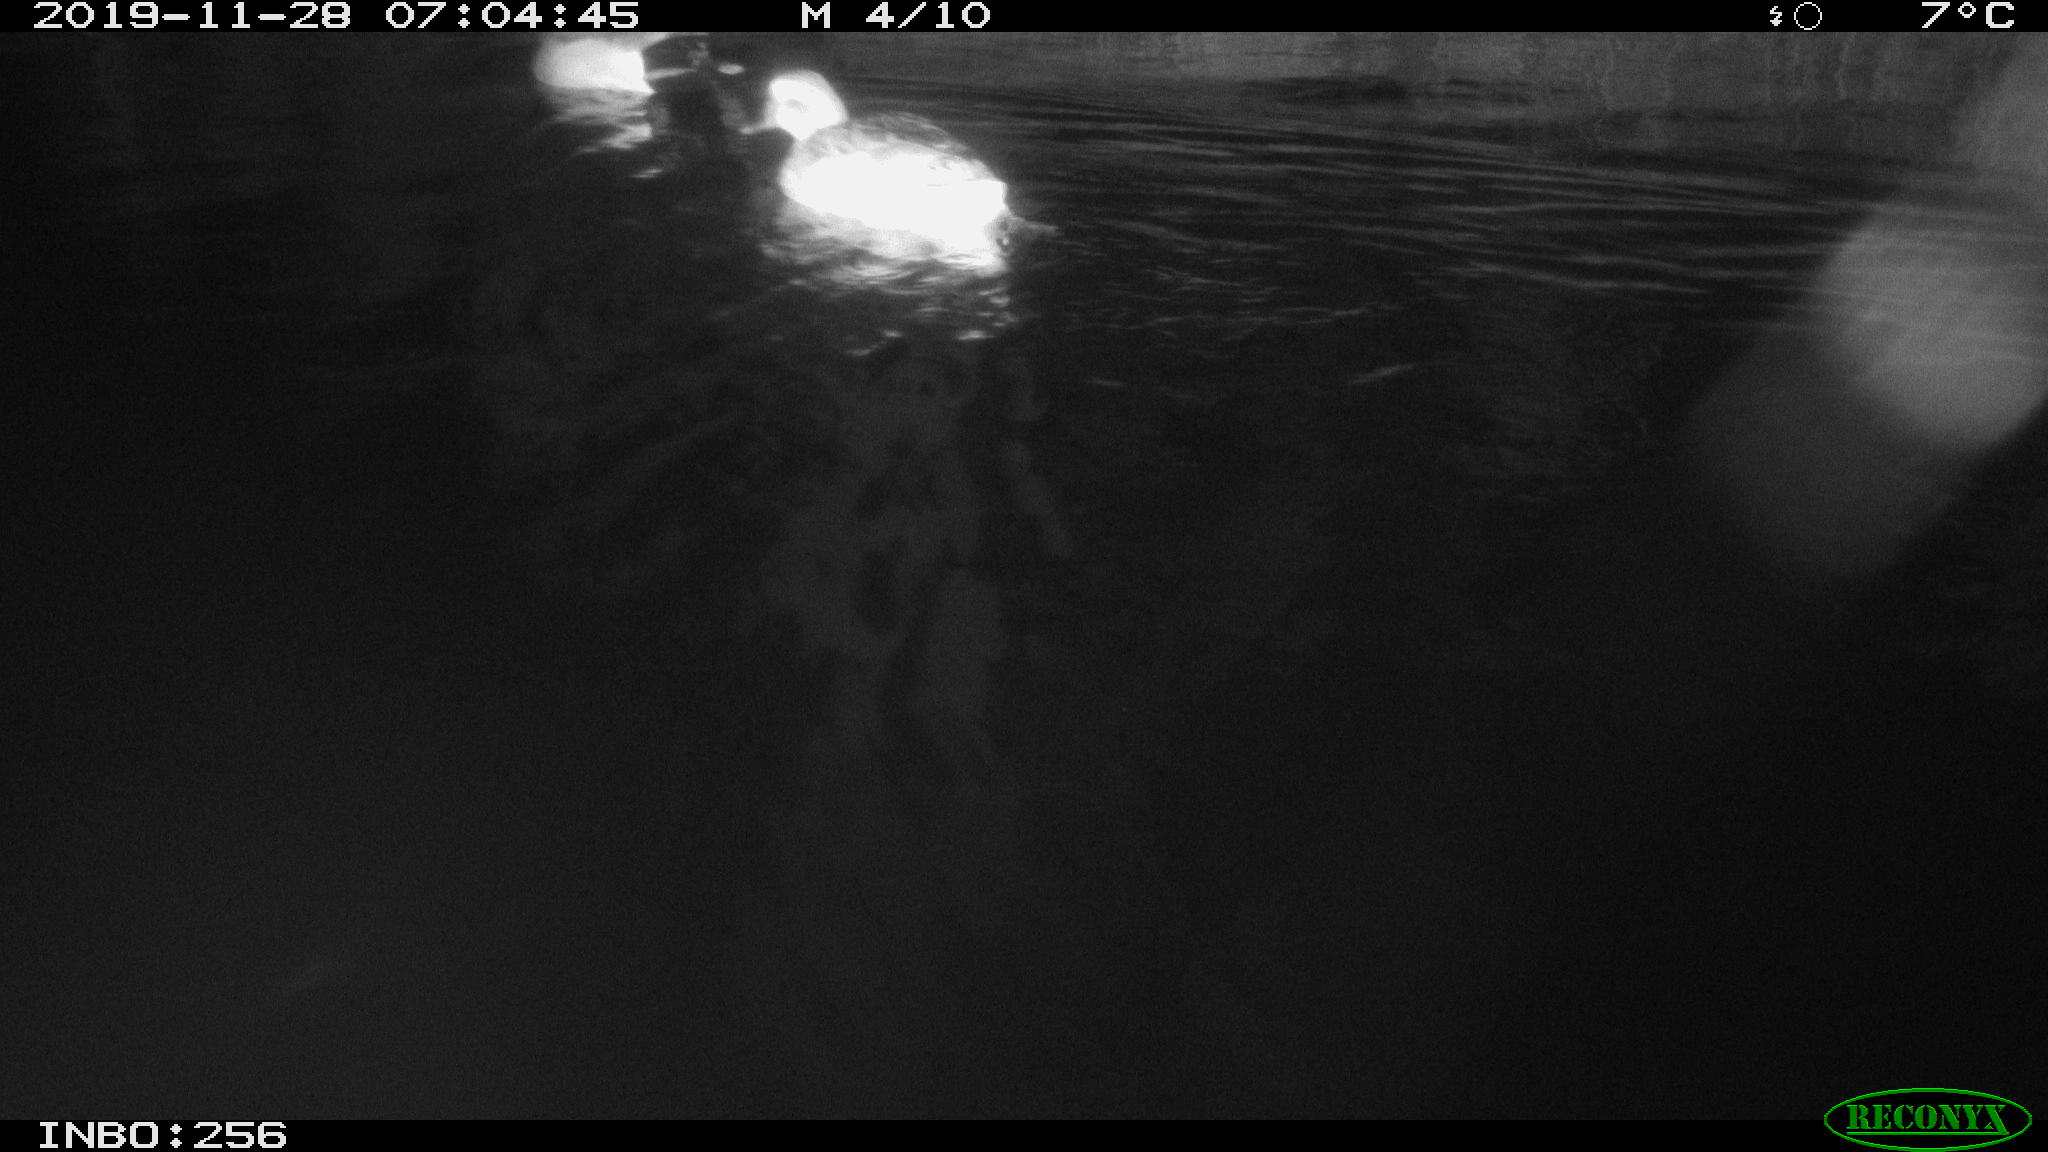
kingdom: Animalia
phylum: Chordata
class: Aves
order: Anseriformes
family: Anatidae
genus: Anas
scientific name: Anas platyrhynchos
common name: Mallard
